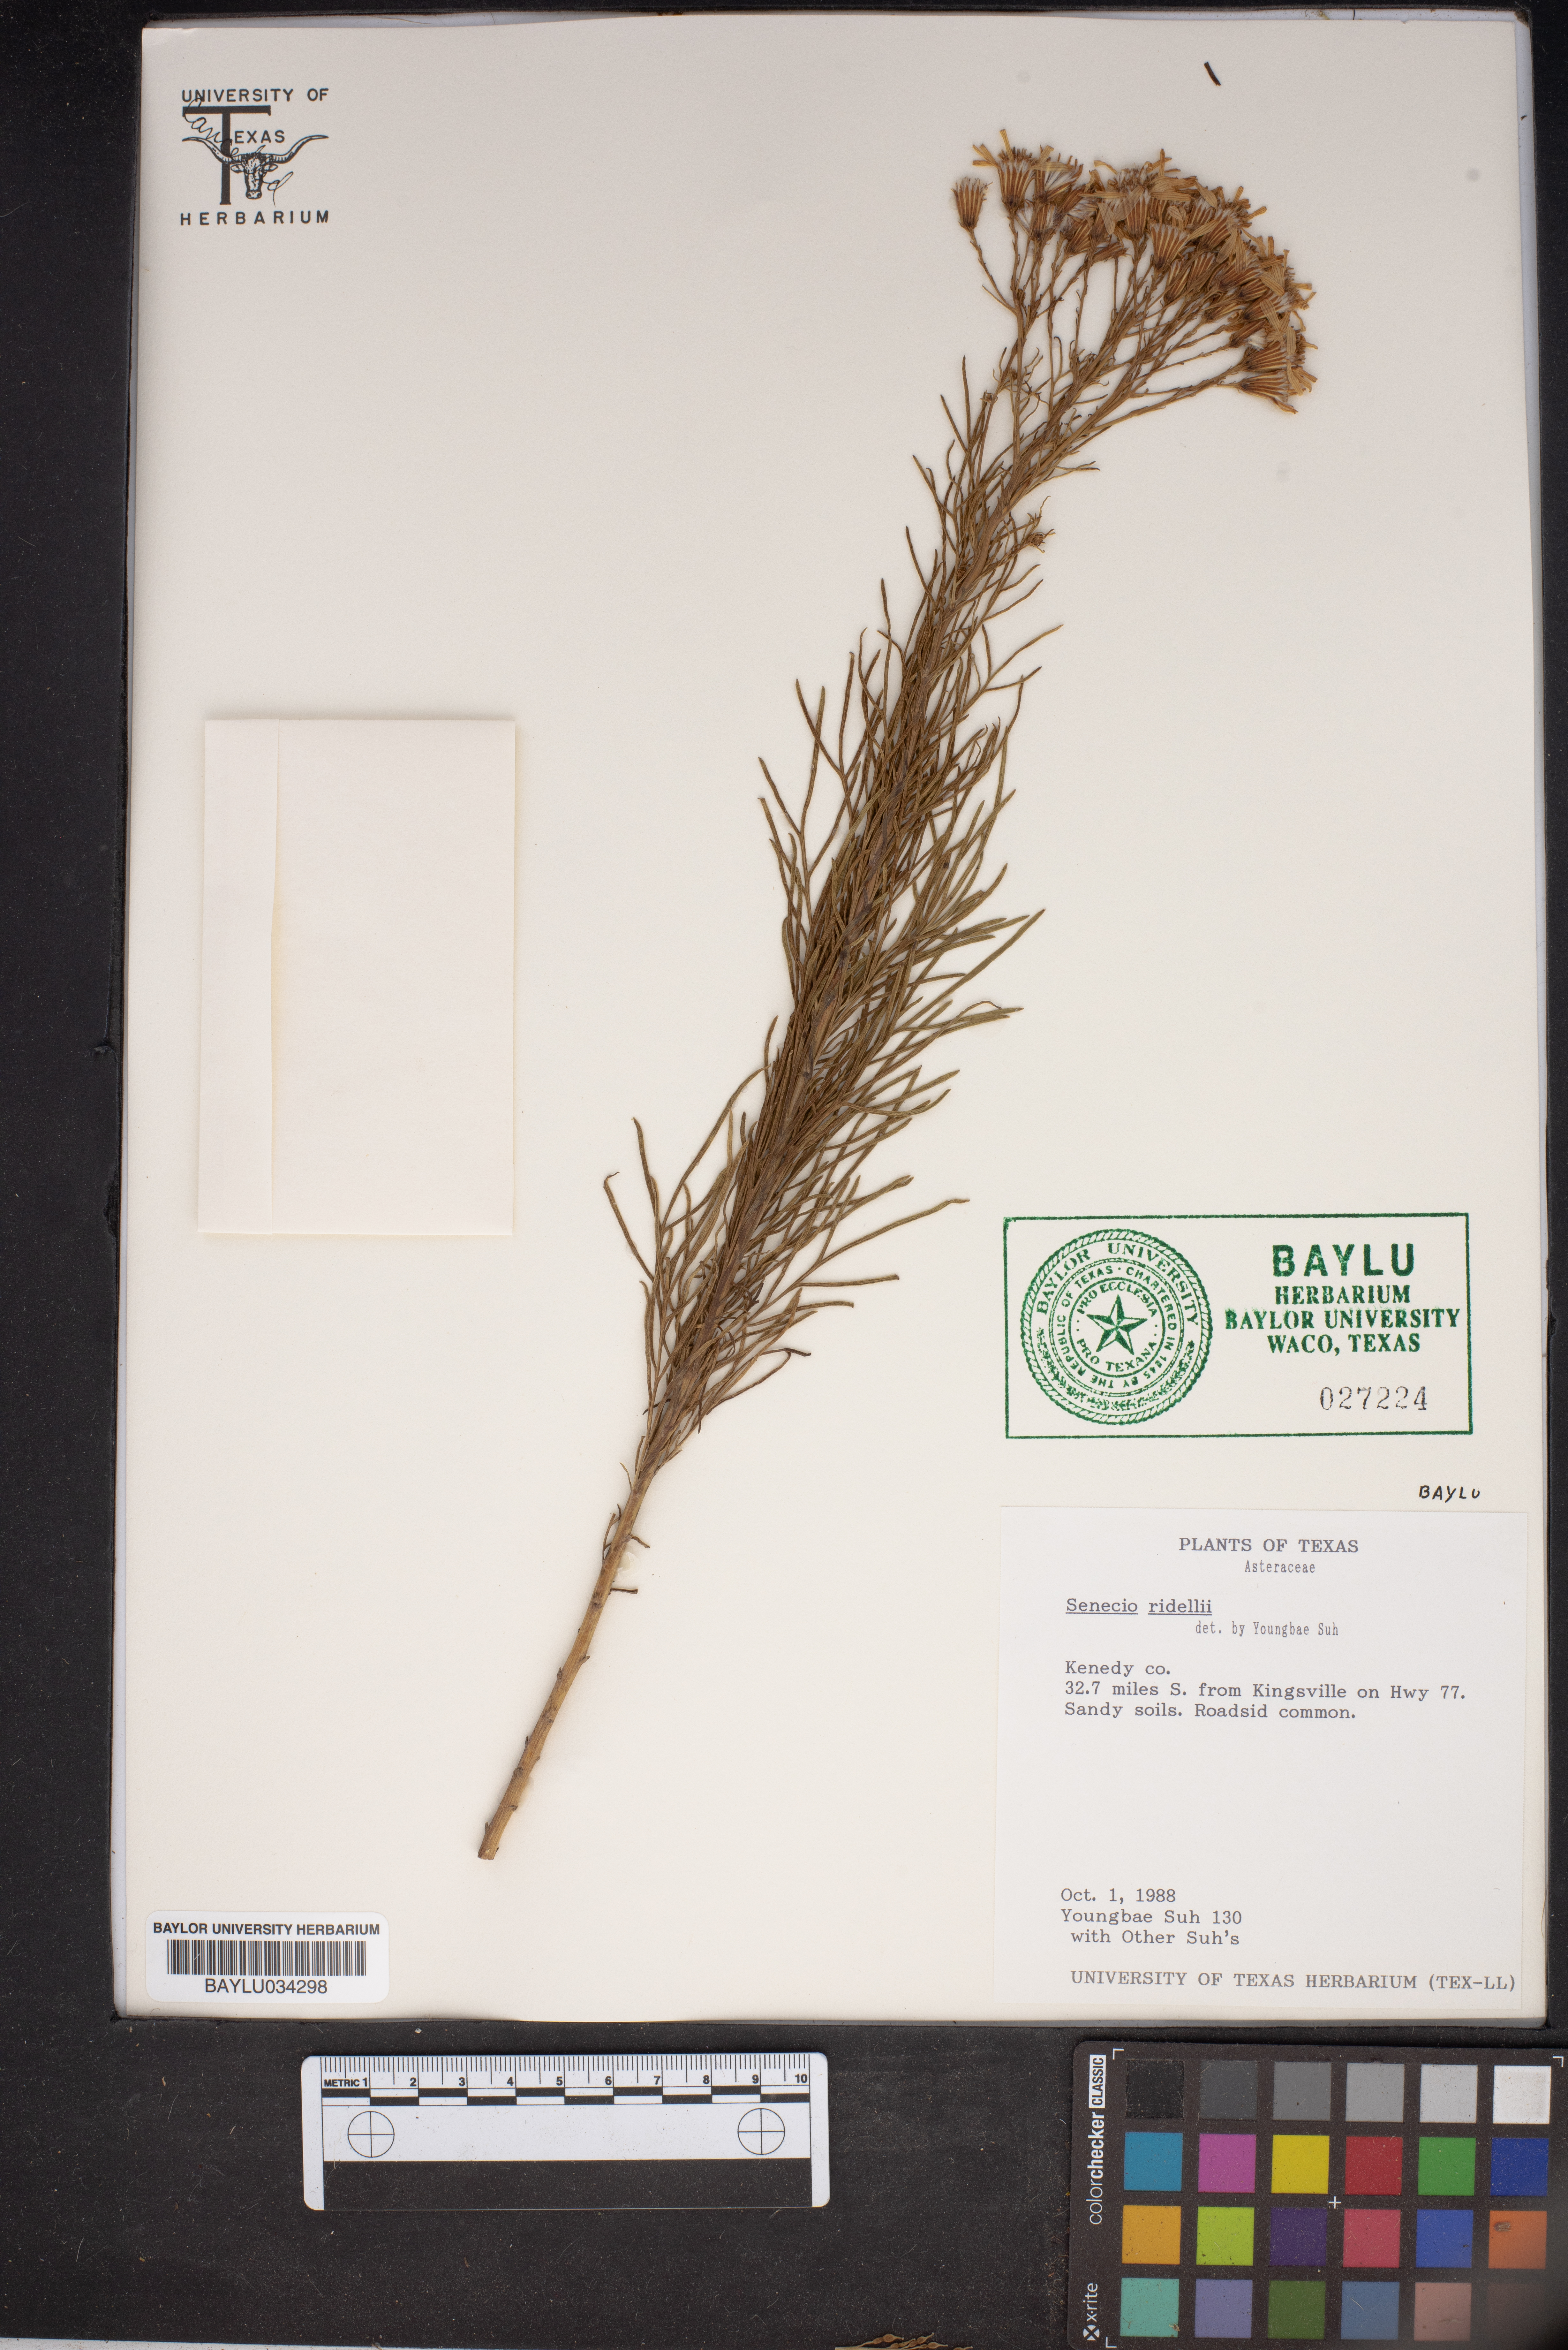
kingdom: Plantae
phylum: Tracheophyta
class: Magnoliopsida
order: Asterales
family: Asteraceae
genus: Senecio
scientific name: Senecio riddellii
